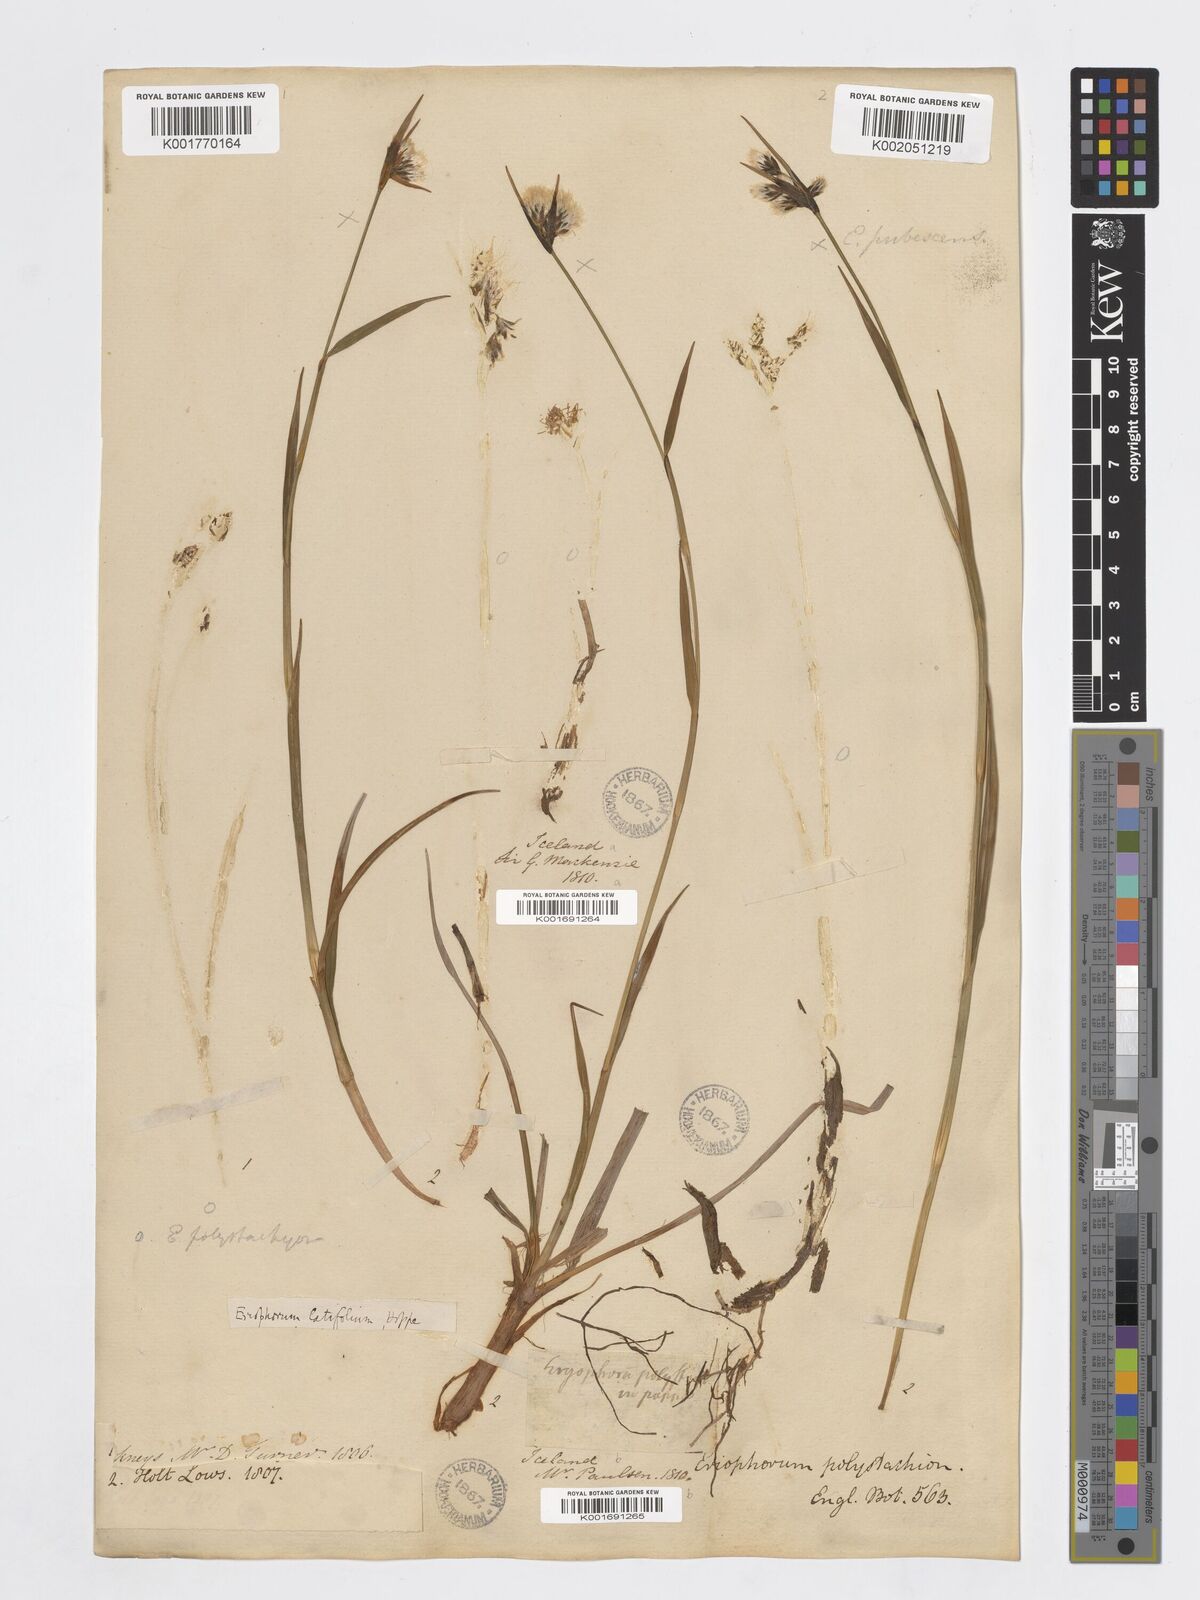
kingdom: Plantae
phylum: Tracheophyta
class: Liliopsida
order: Poales
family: Cyperaceae
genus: Eriophorum
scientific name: Eriophorum latifolium
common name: Broad-leaved cottongrass
